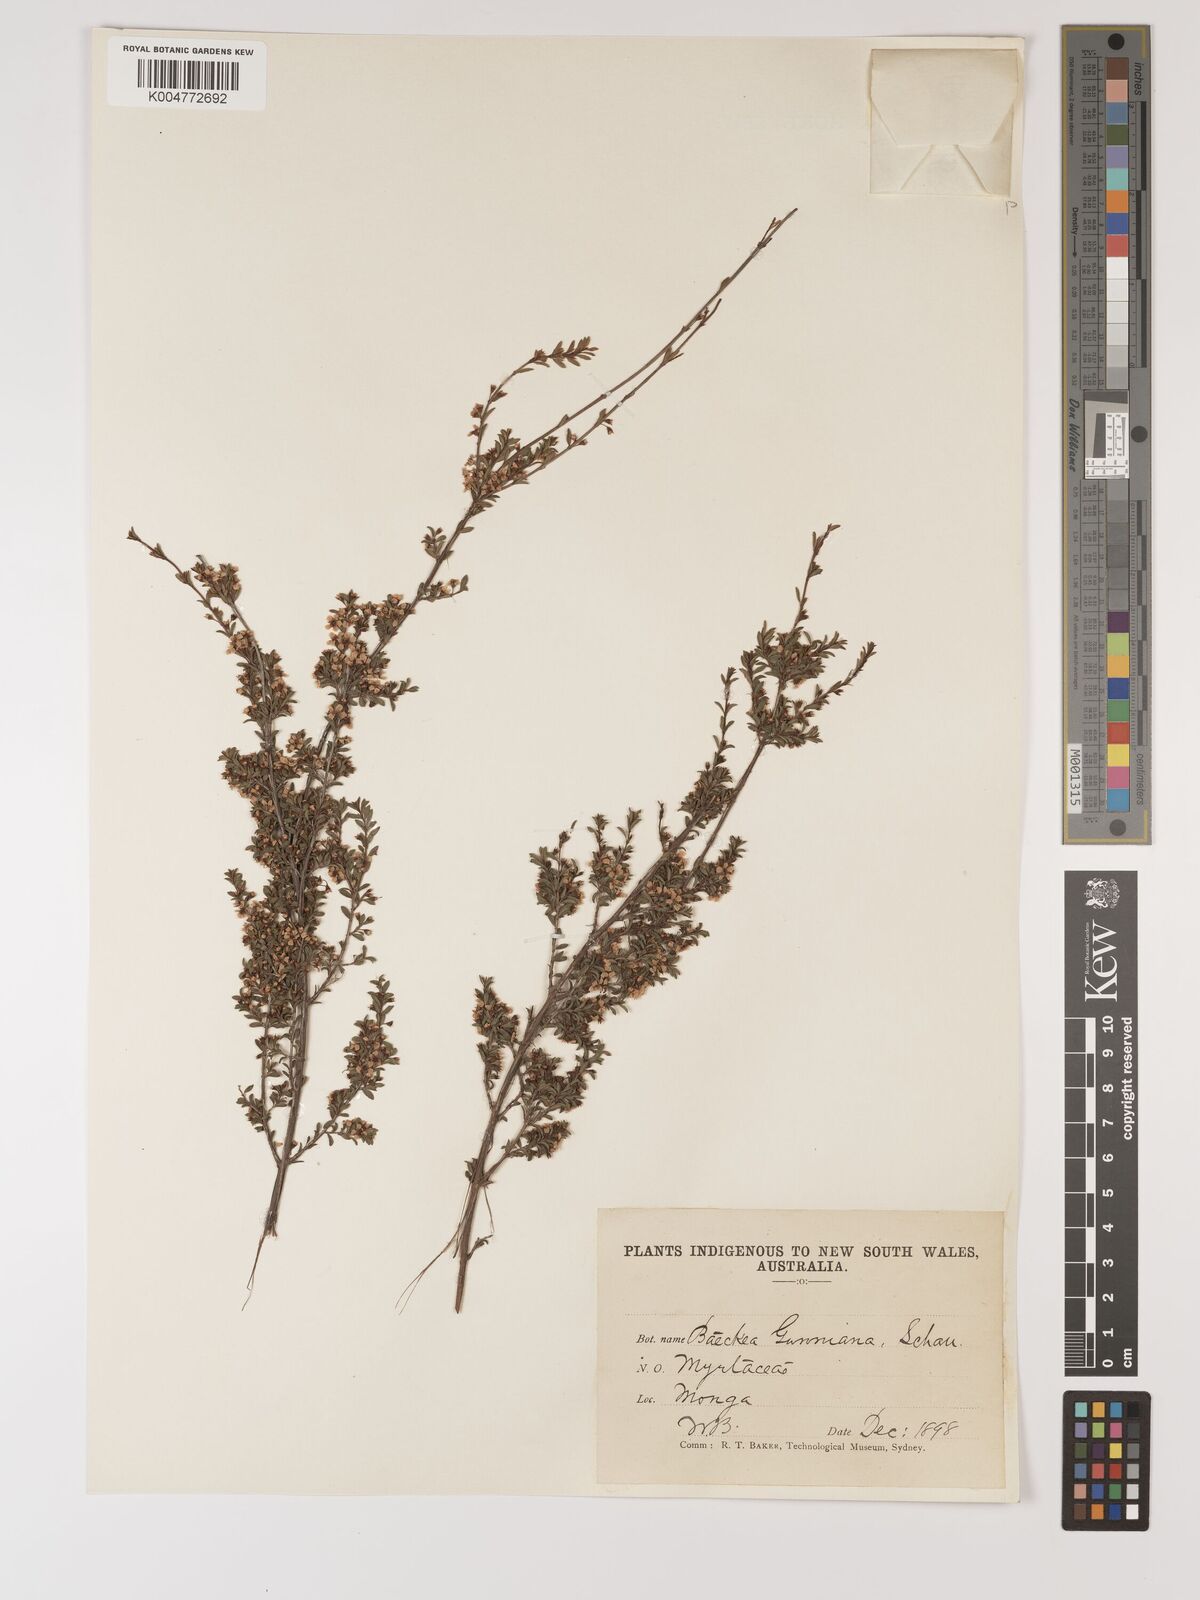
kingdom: Plantae
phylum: Tracheophyta
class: Magnoliopsida
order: Myrtales
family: Myrtaceae
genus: Baeckea
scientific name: Baeckea gunniana
